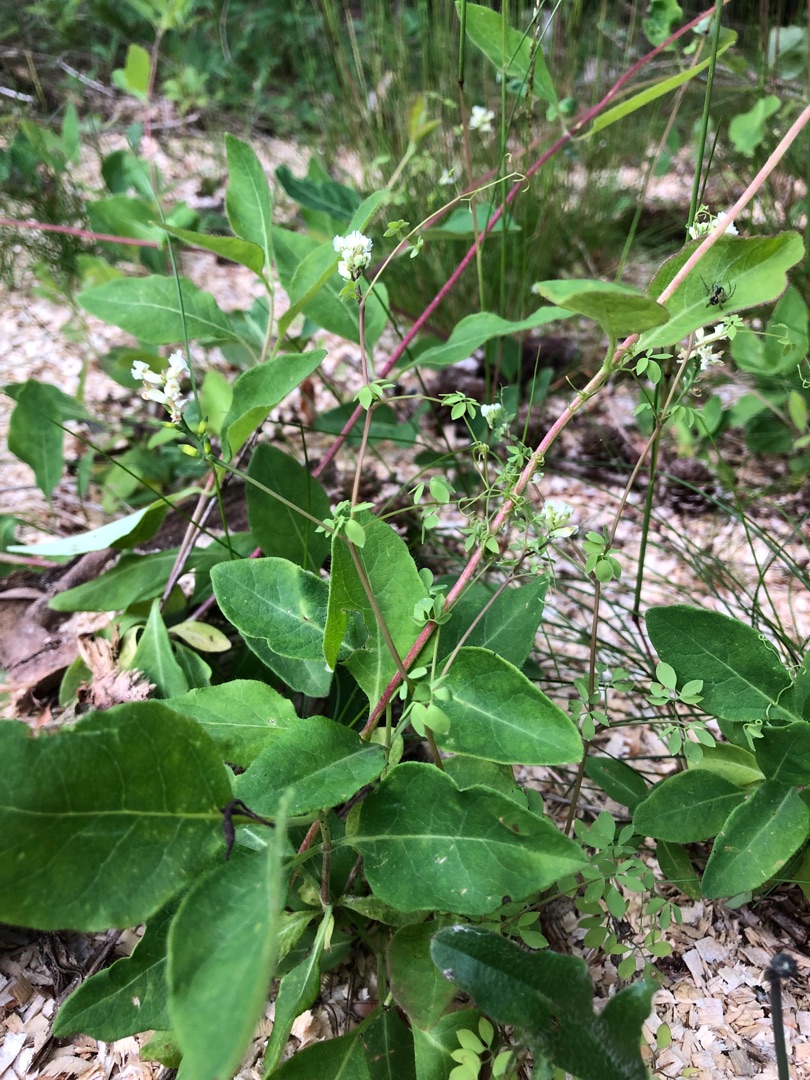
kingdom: Plantae
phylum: Tracheophyta
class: Magnoliopsida
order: Ranunculales
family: Papaveraceae
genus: Ceratocapnos
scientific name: Ceratocapnos claviculata
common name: Klatrende lærkespore
